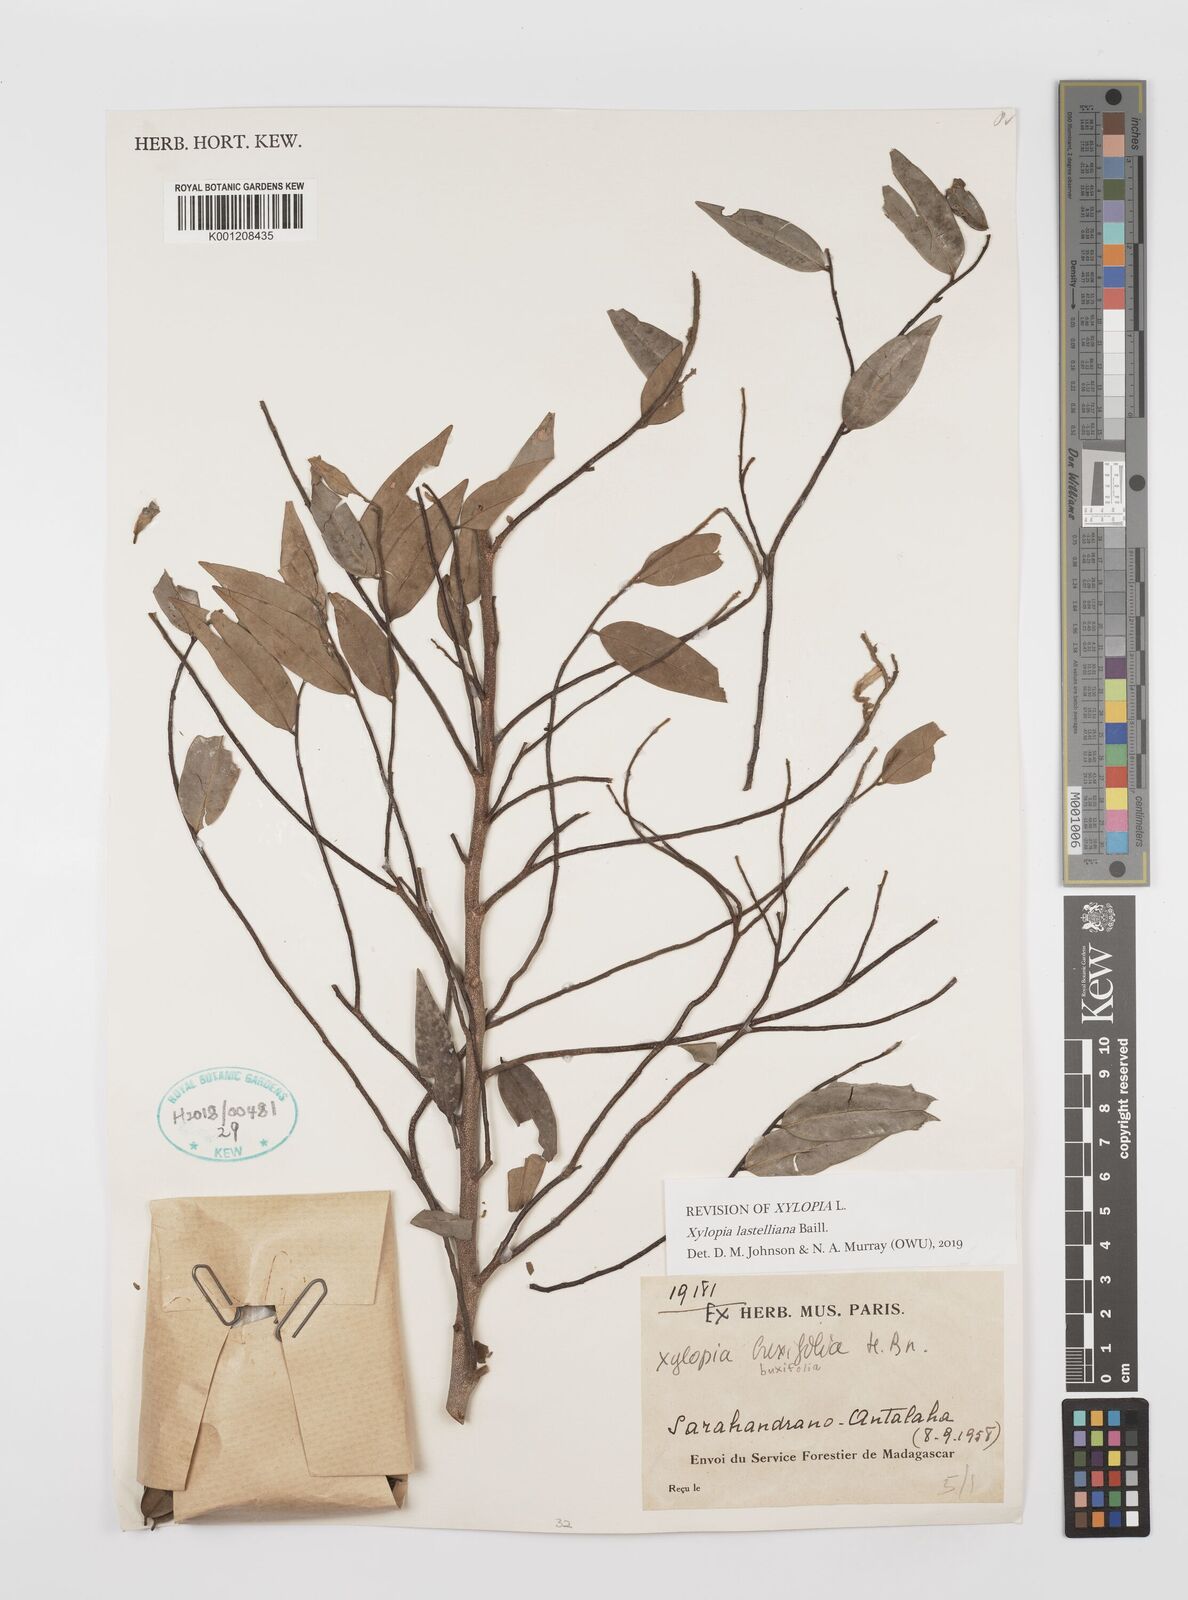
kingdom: Plantae
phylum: Tracheophyta
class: Magnoliopsida
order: Magnoliales
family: Annonaceae
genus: Xylopia
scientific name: Xylopia buxifolia
